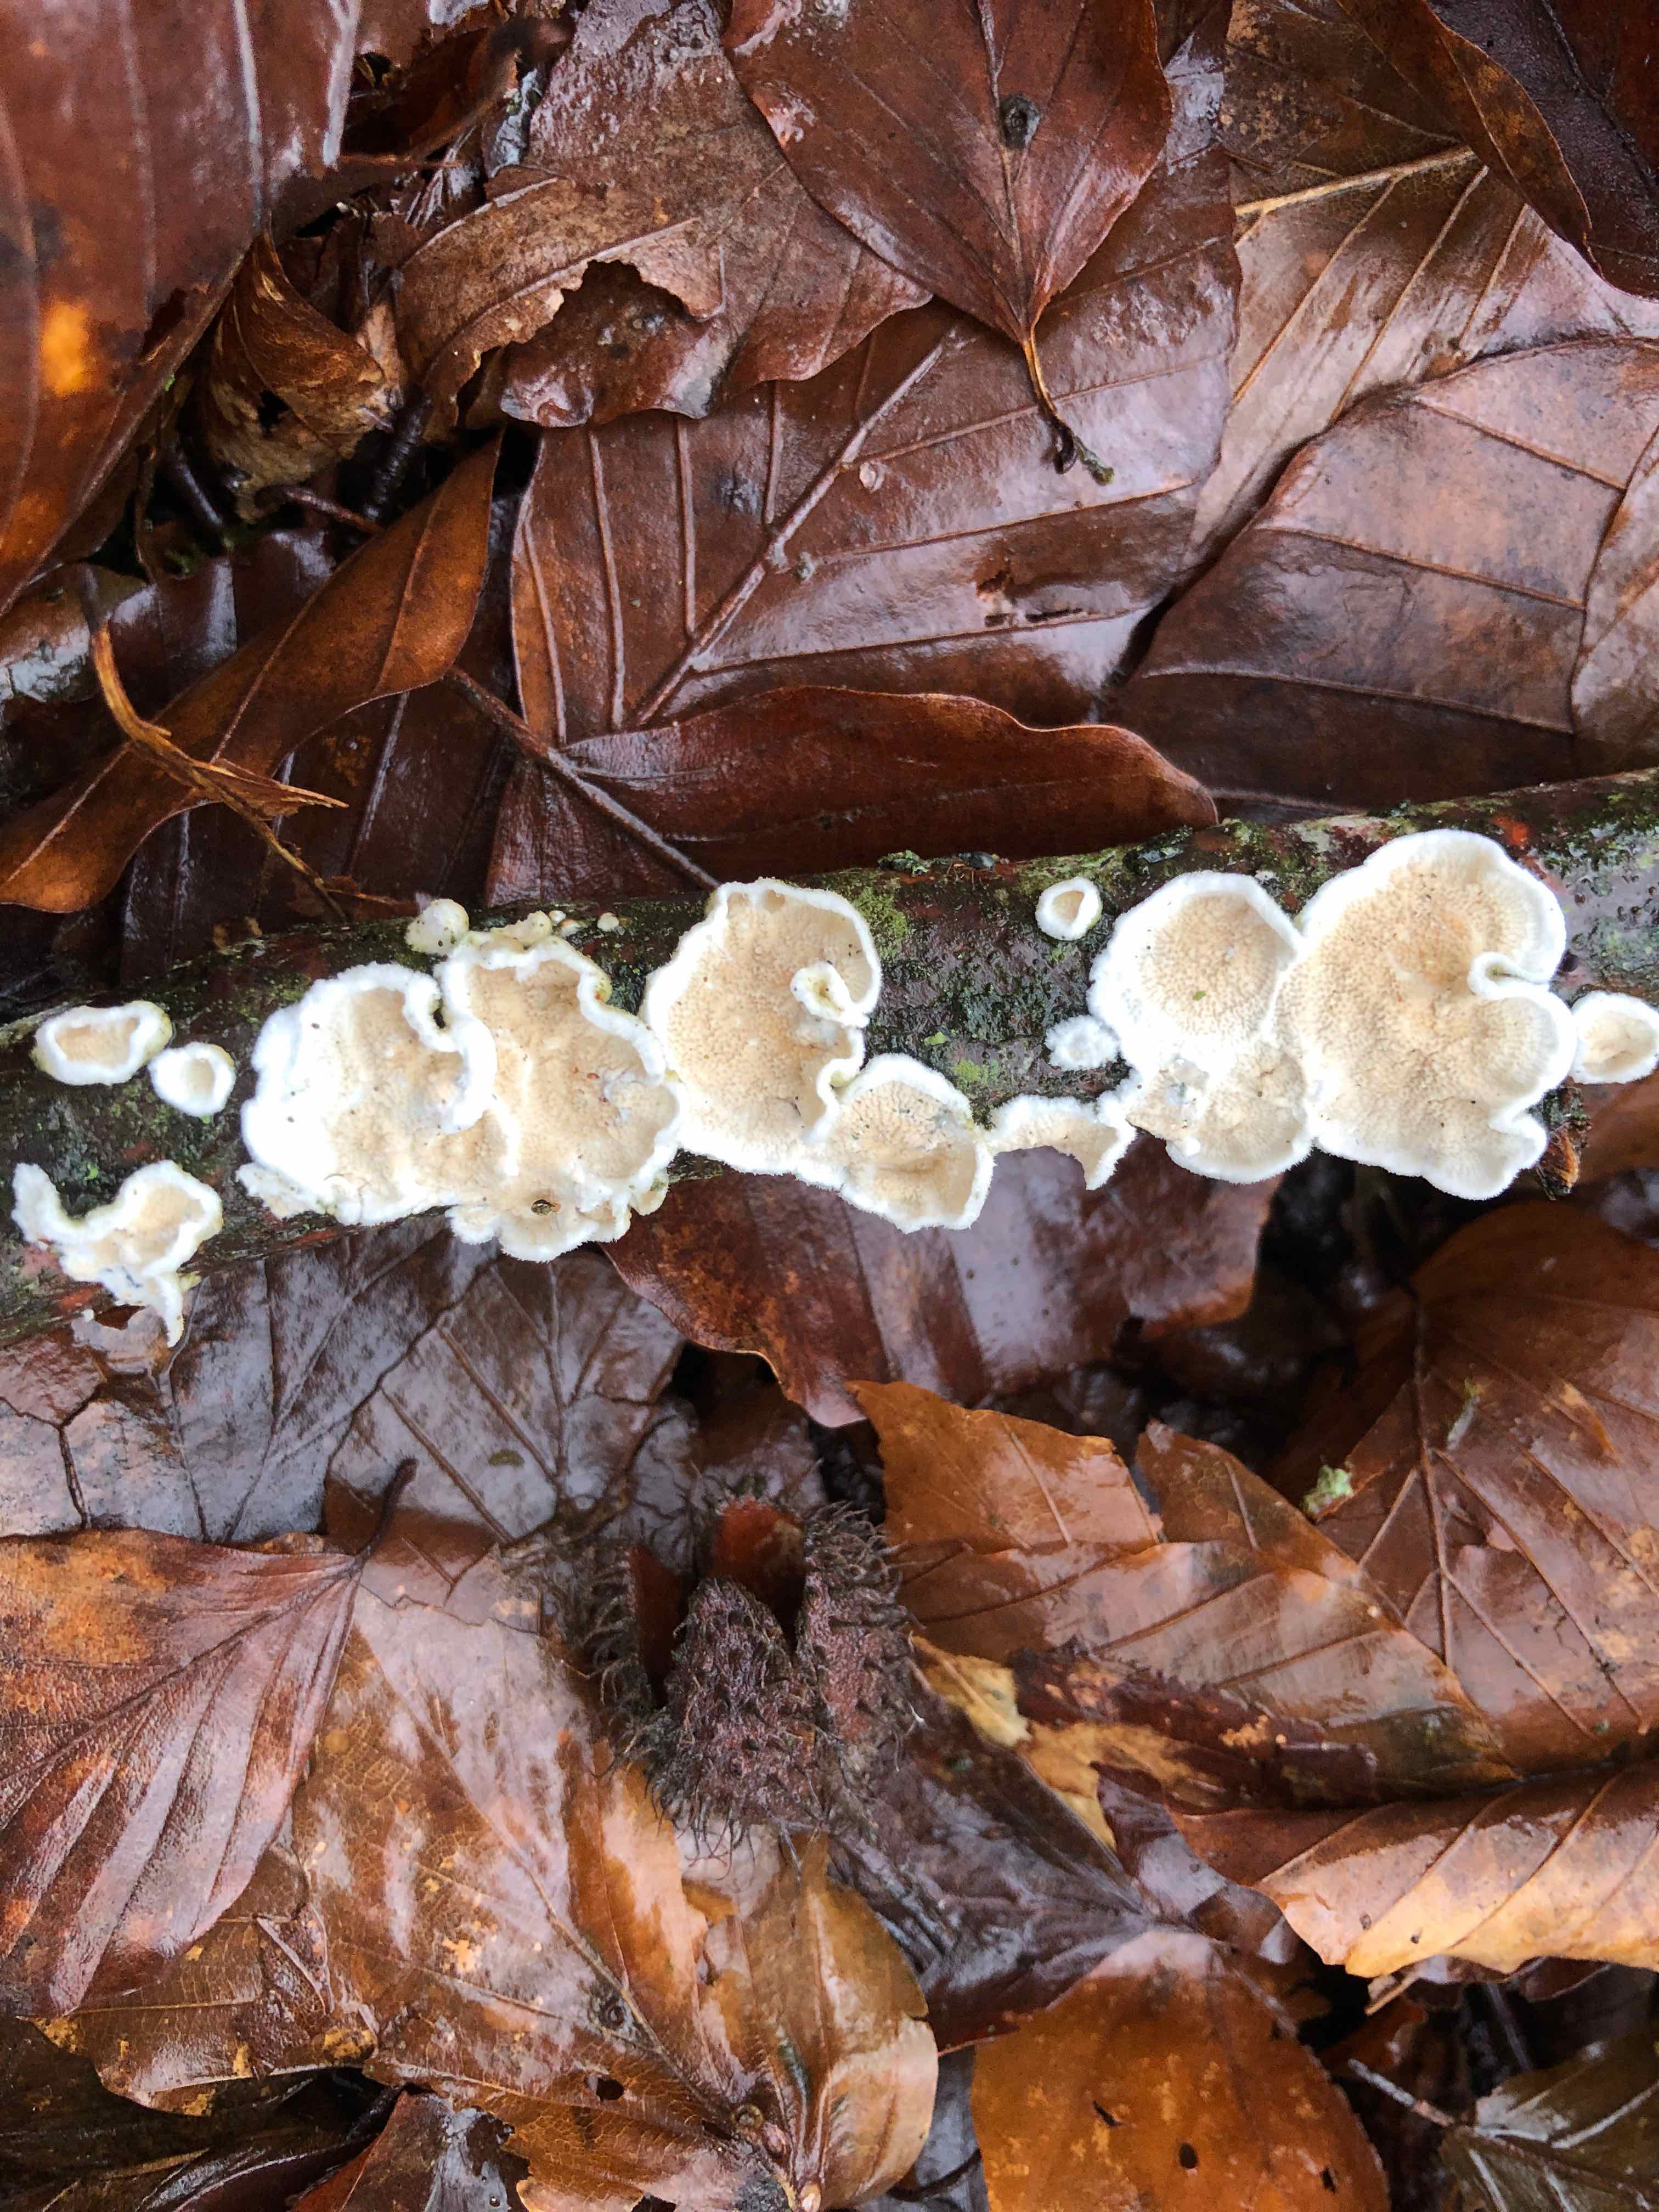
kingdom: Fungi
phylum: Basidiomycota
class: Agaricomycetes
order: Polyporales
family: Irpicaceae
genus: Byssomerulius
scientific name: Byssomerulius corium
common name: læder-åresvamp
